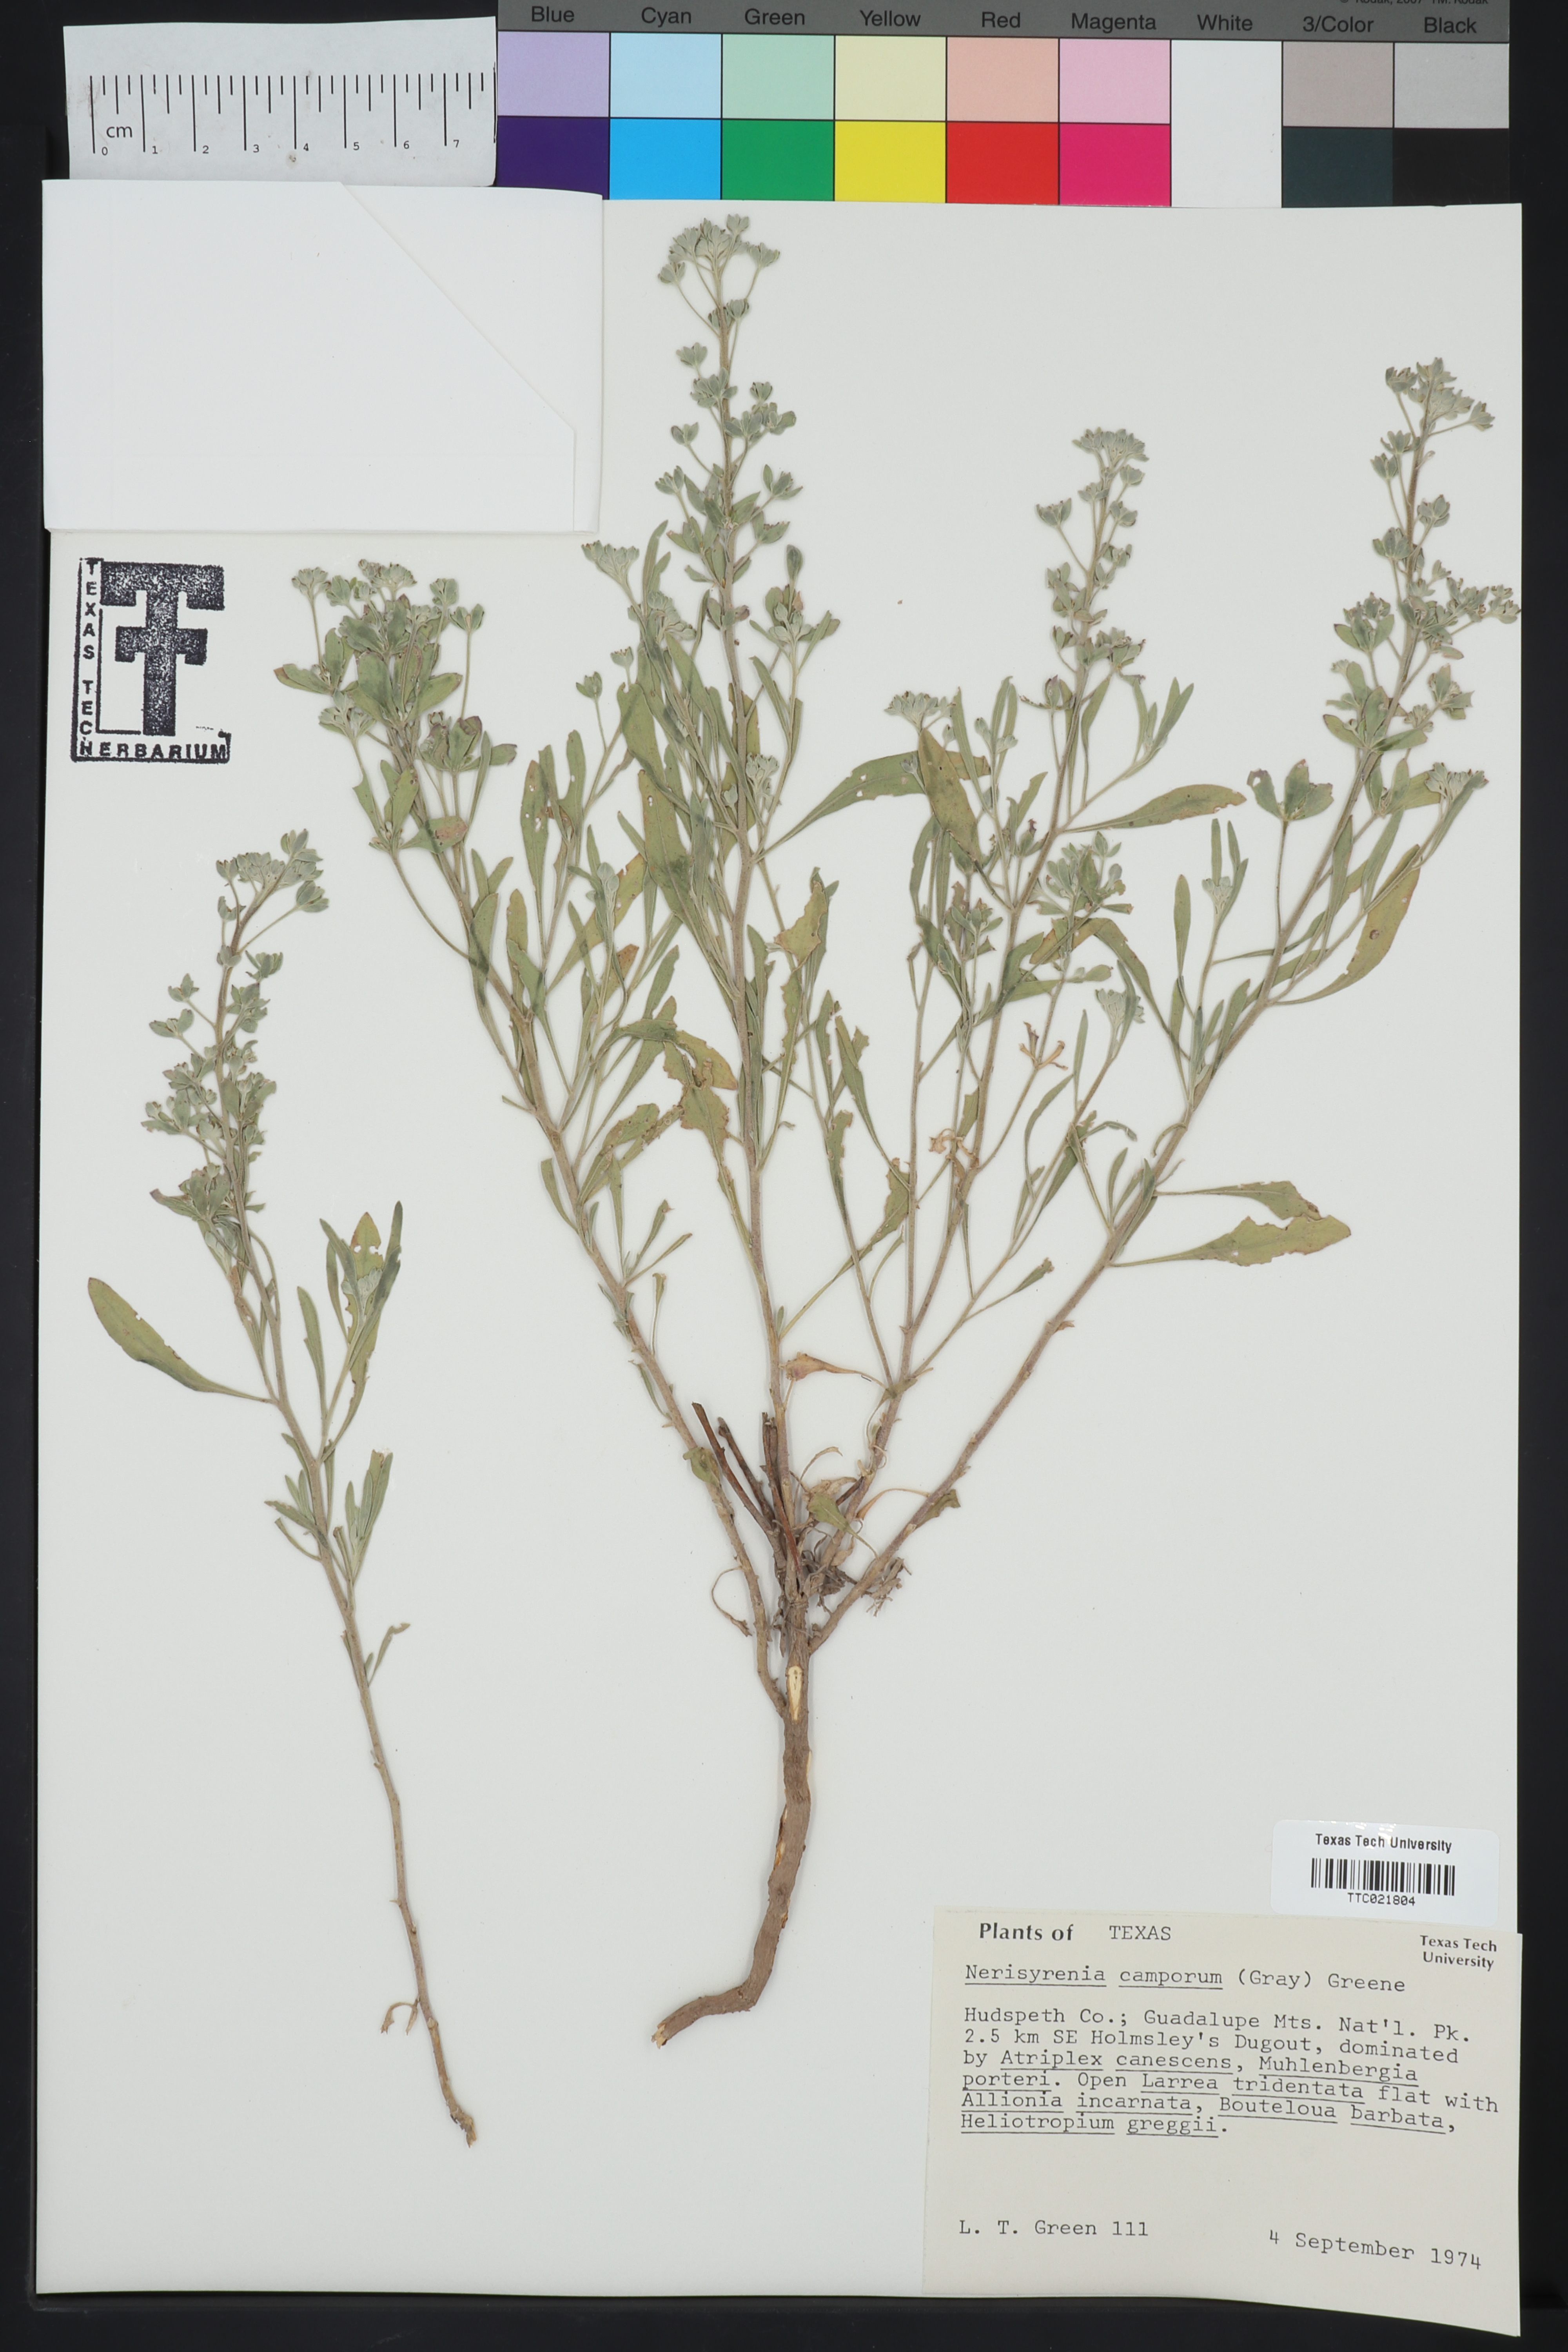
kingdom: Plantae
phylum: Tracheophyta
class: Magnoliopsida
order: Brassicales
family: Brassicaceae
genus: Nerisyrenia
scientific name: Nerisyrenia camporum
